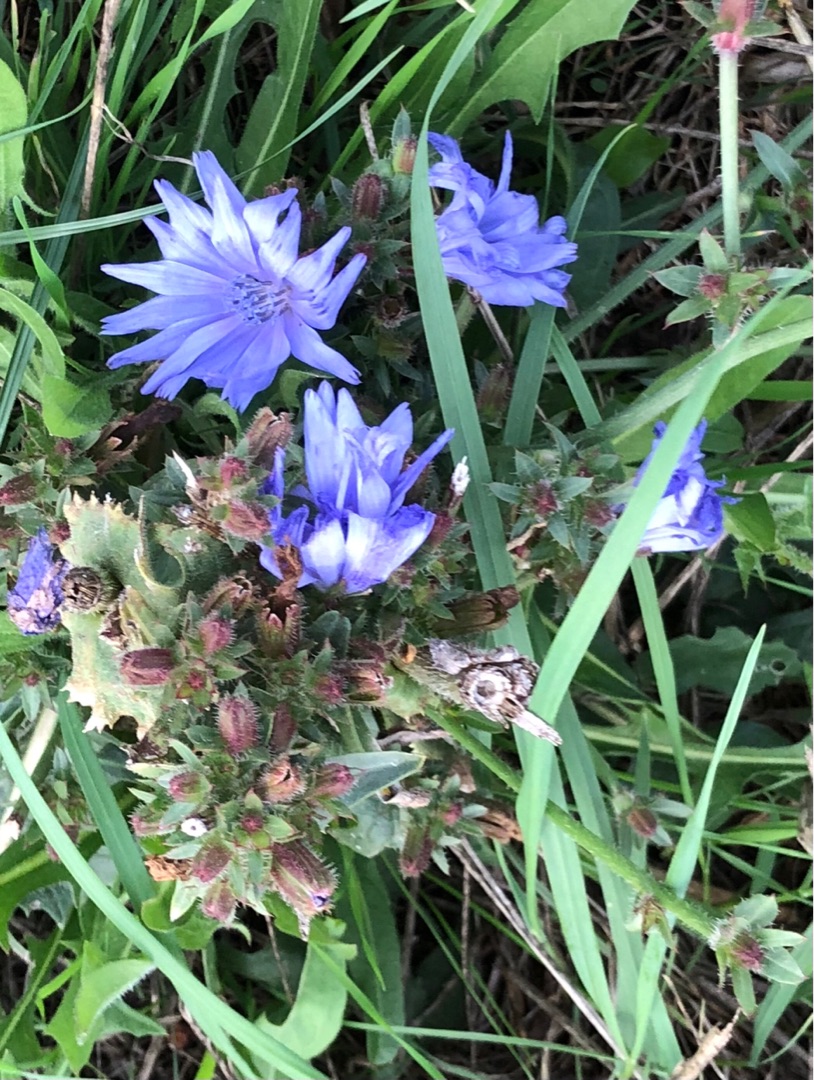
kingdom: Plantae
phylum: Tracheophyta
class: Magnoliopsida
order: Asterales
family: Asteraceae
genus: Cichorium
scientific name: Cichorium intybus
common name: Cikorie
